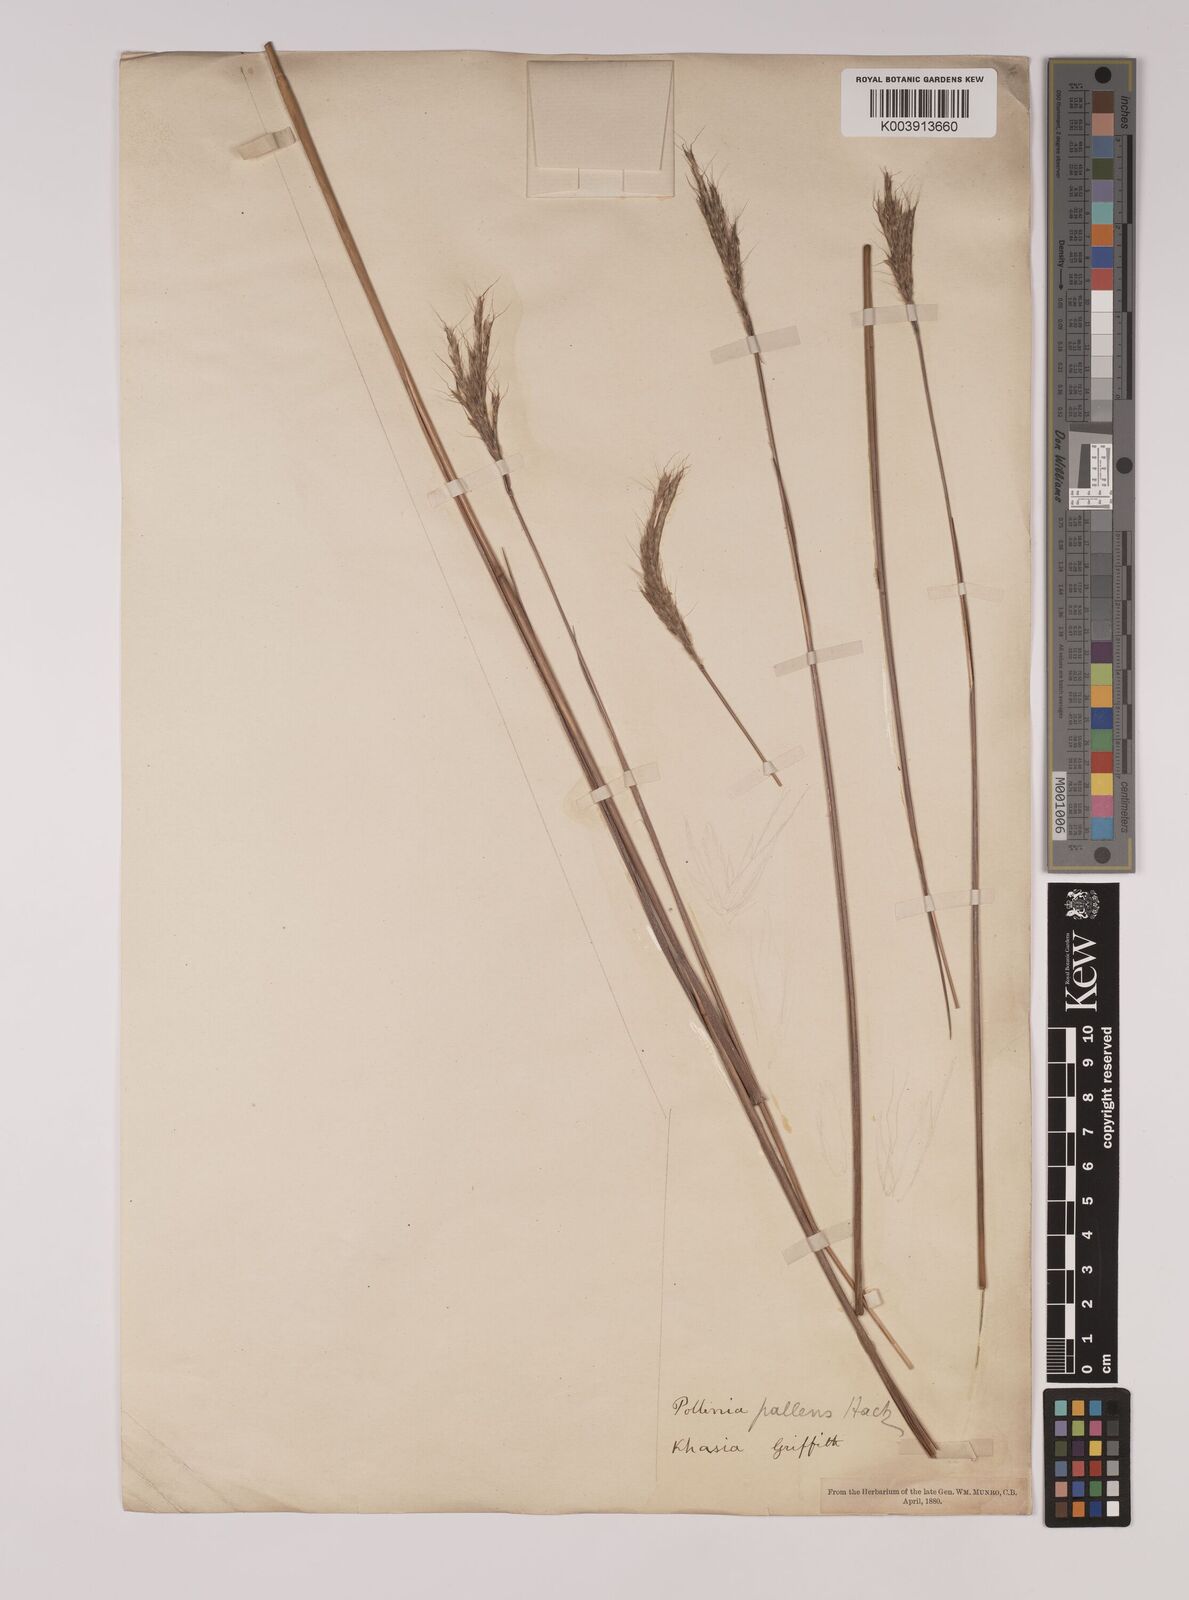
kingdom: Plantae
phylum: Tracheophyta
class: Liliopsida
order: Poales
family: Poaceae
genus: Eulalia
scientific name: Eulalia pallens
